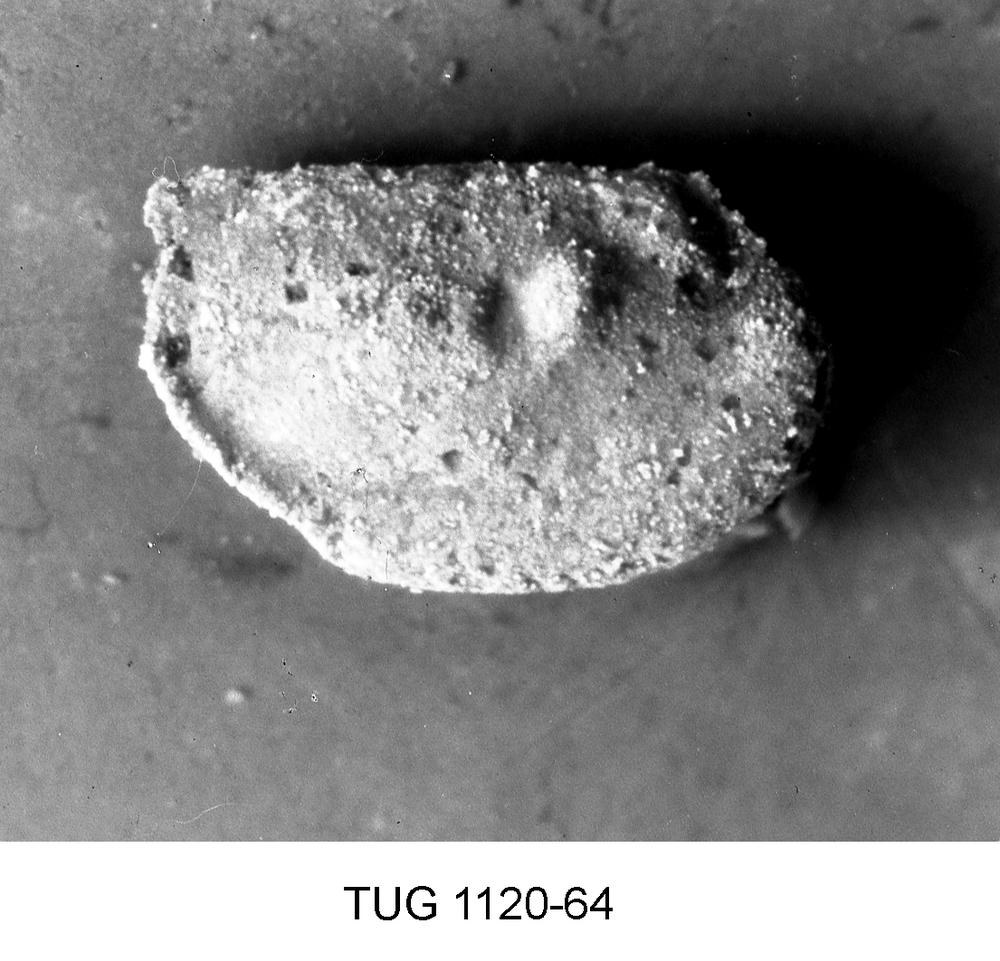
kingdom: Animalia
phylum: Arthropoda
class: Ostracoda
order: Palaeocopida
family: Tvaerenellidae
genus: Uhakiella
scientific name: Uhakiella
